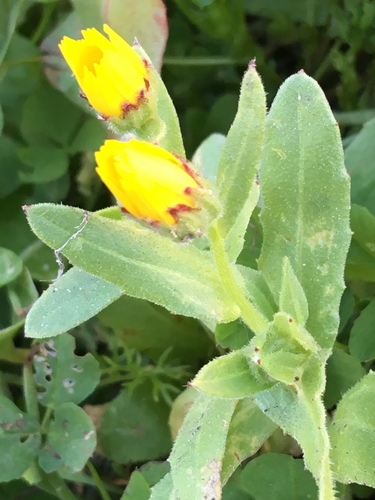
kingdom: Plantae
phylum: Tracheophyta
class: Magnoliopsida
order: Asterales
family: Asteraceae
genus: Calendula
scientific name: Calendula arvensis
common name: Field marigold
